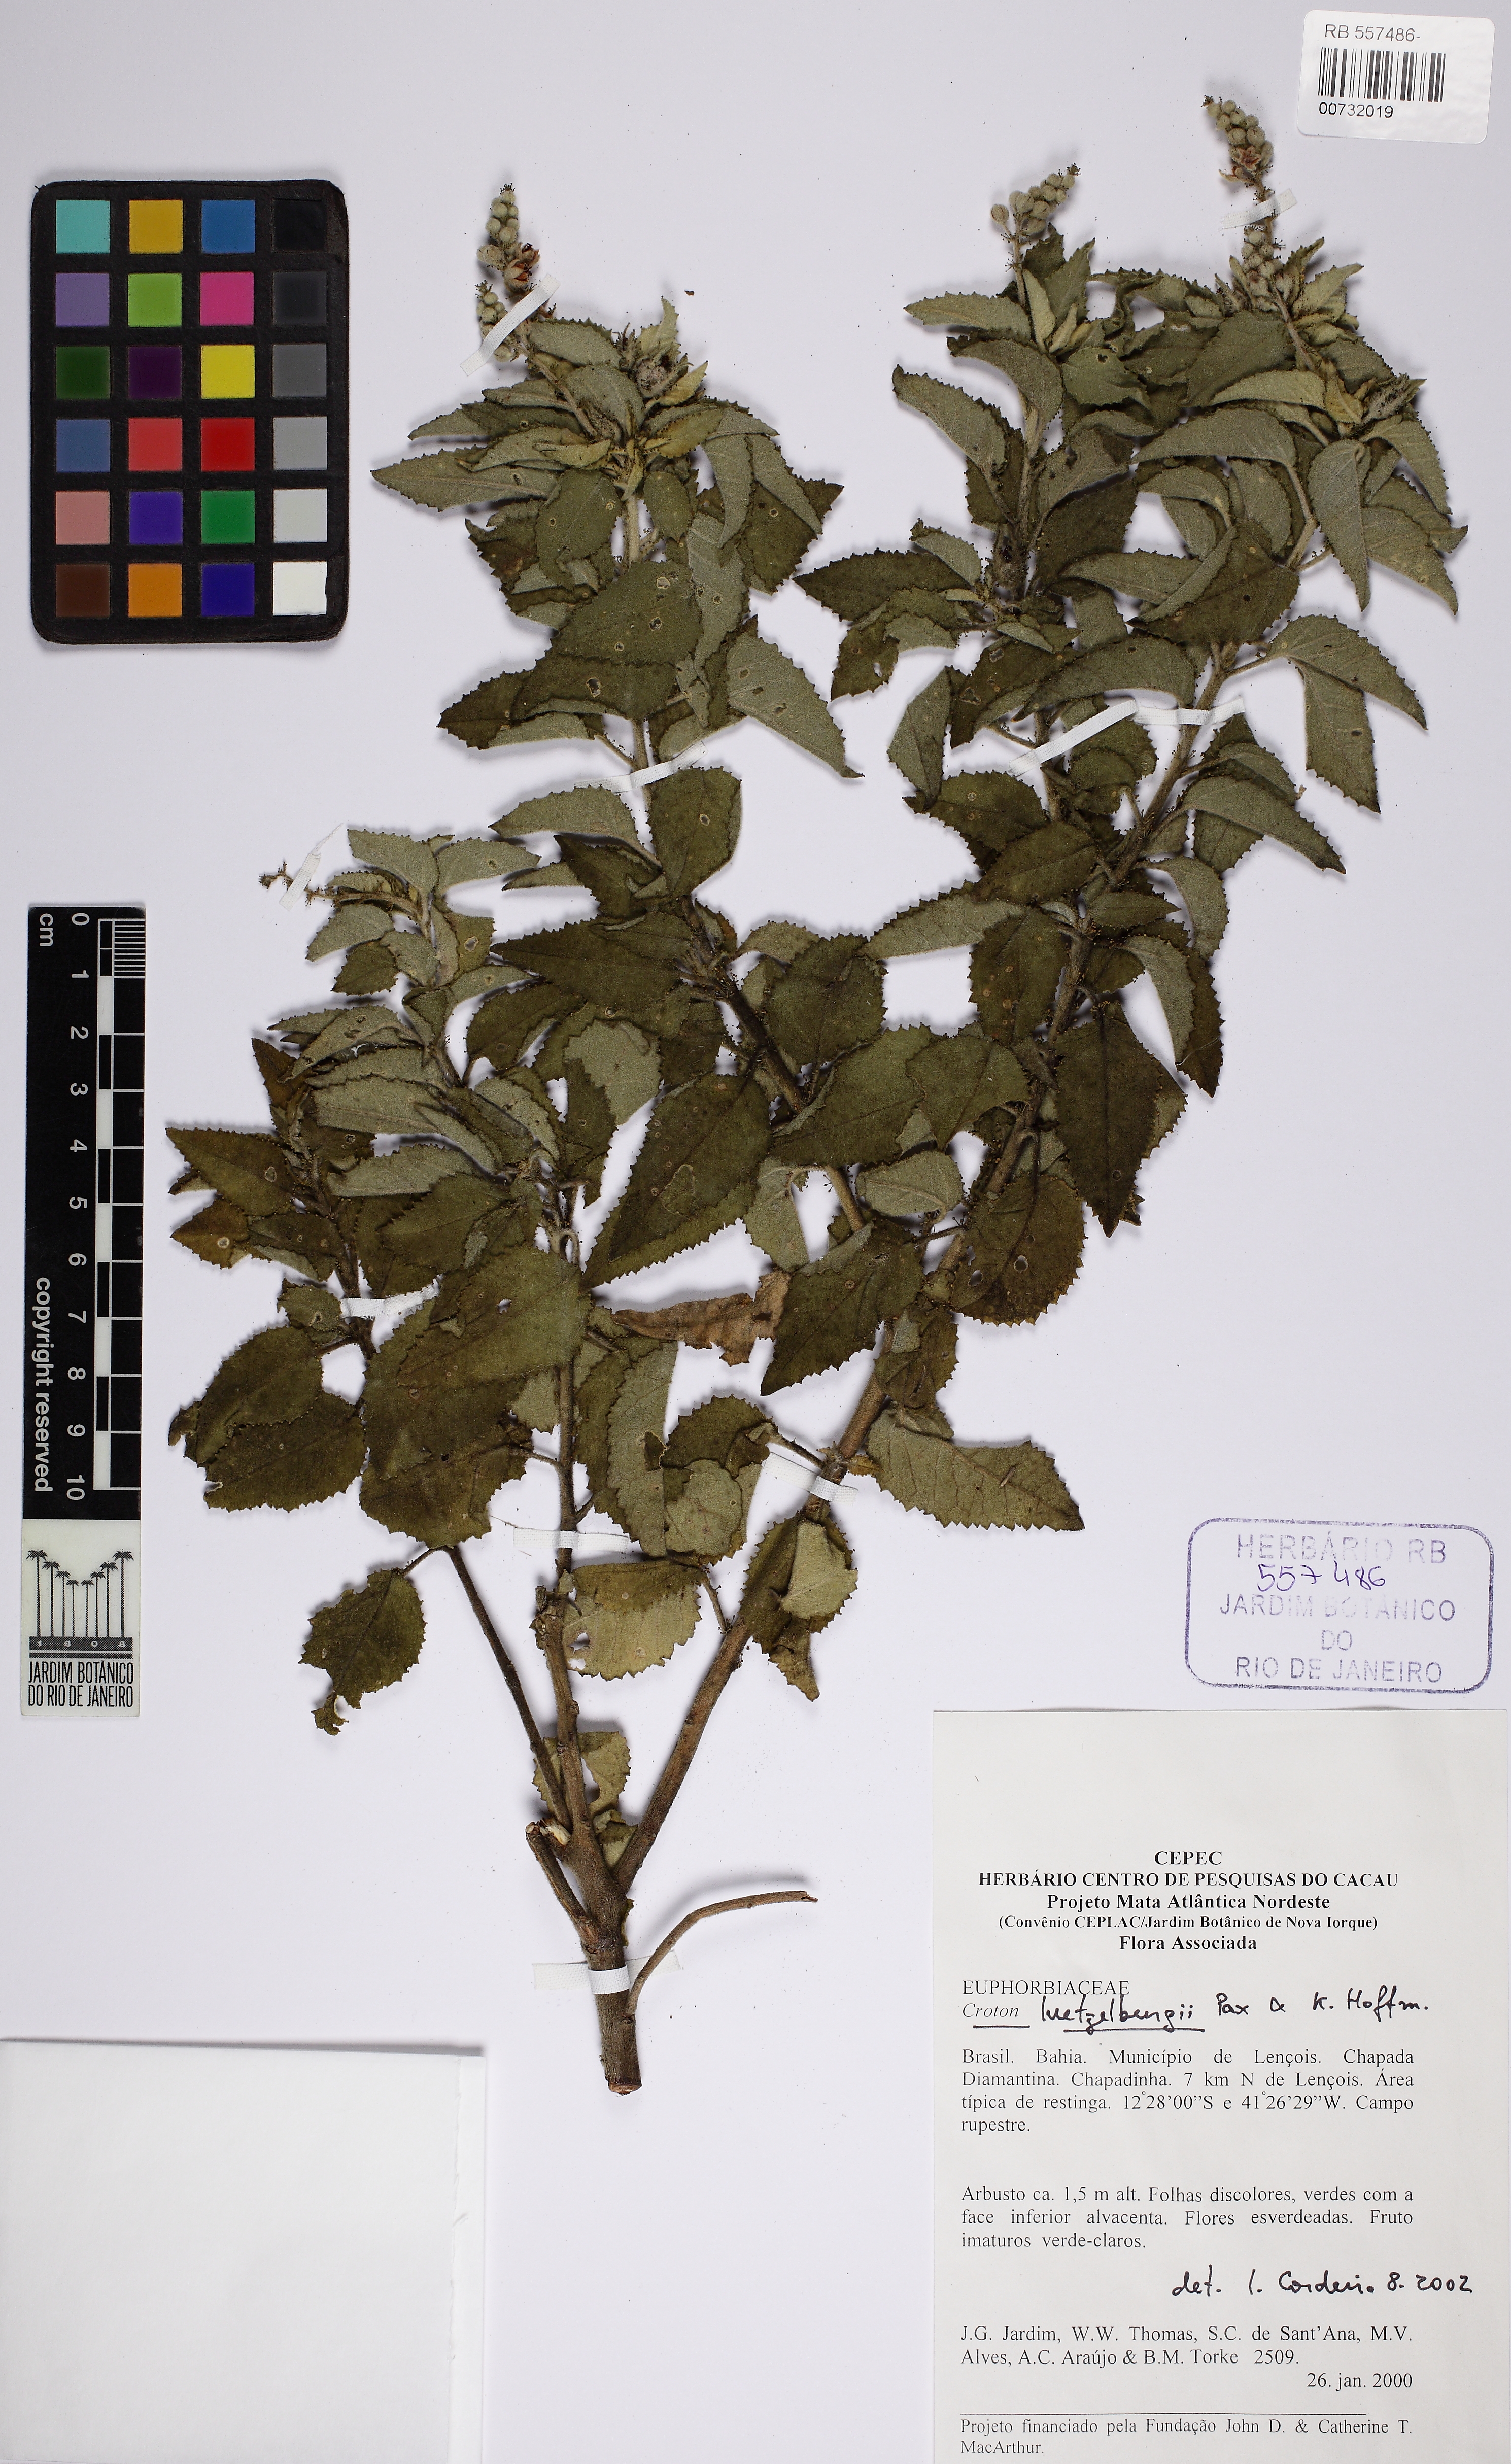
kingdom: Plantae
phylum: Tracheophyta
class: Magnoliopsida
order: Malpighiales
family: Euphorbiaceae
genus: Croton
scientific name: Croton luetzelburgii
